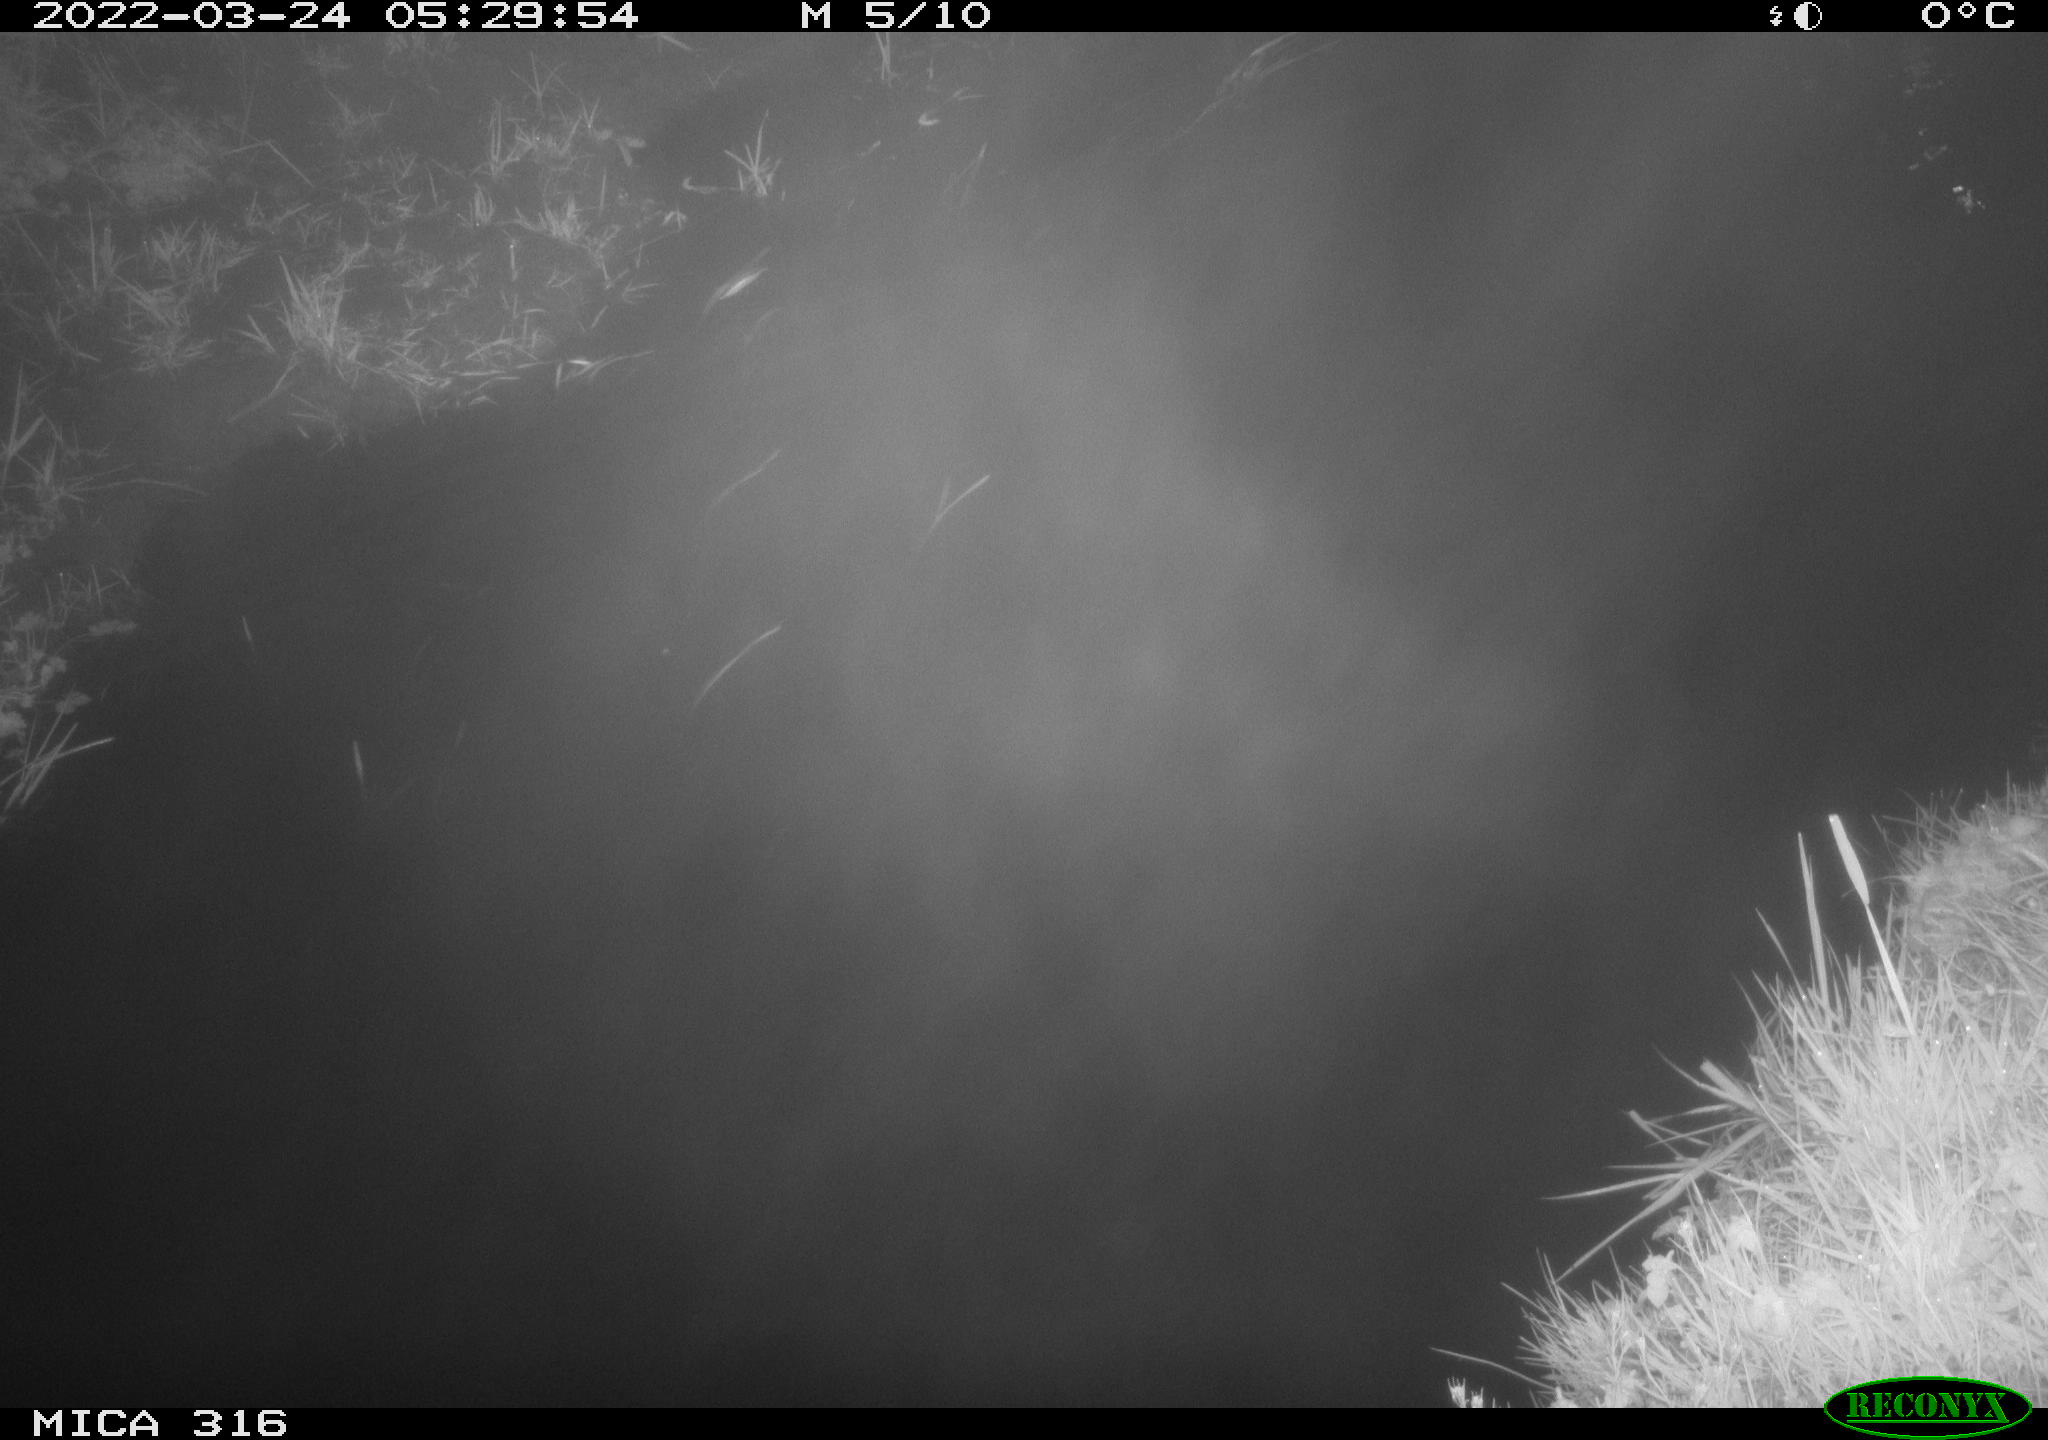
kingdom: Animalia
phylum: Chordata
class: Aves
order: Anseriformes
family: Anatidae
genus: Anas
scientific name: Anas platyrhynchos
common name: Mallard
